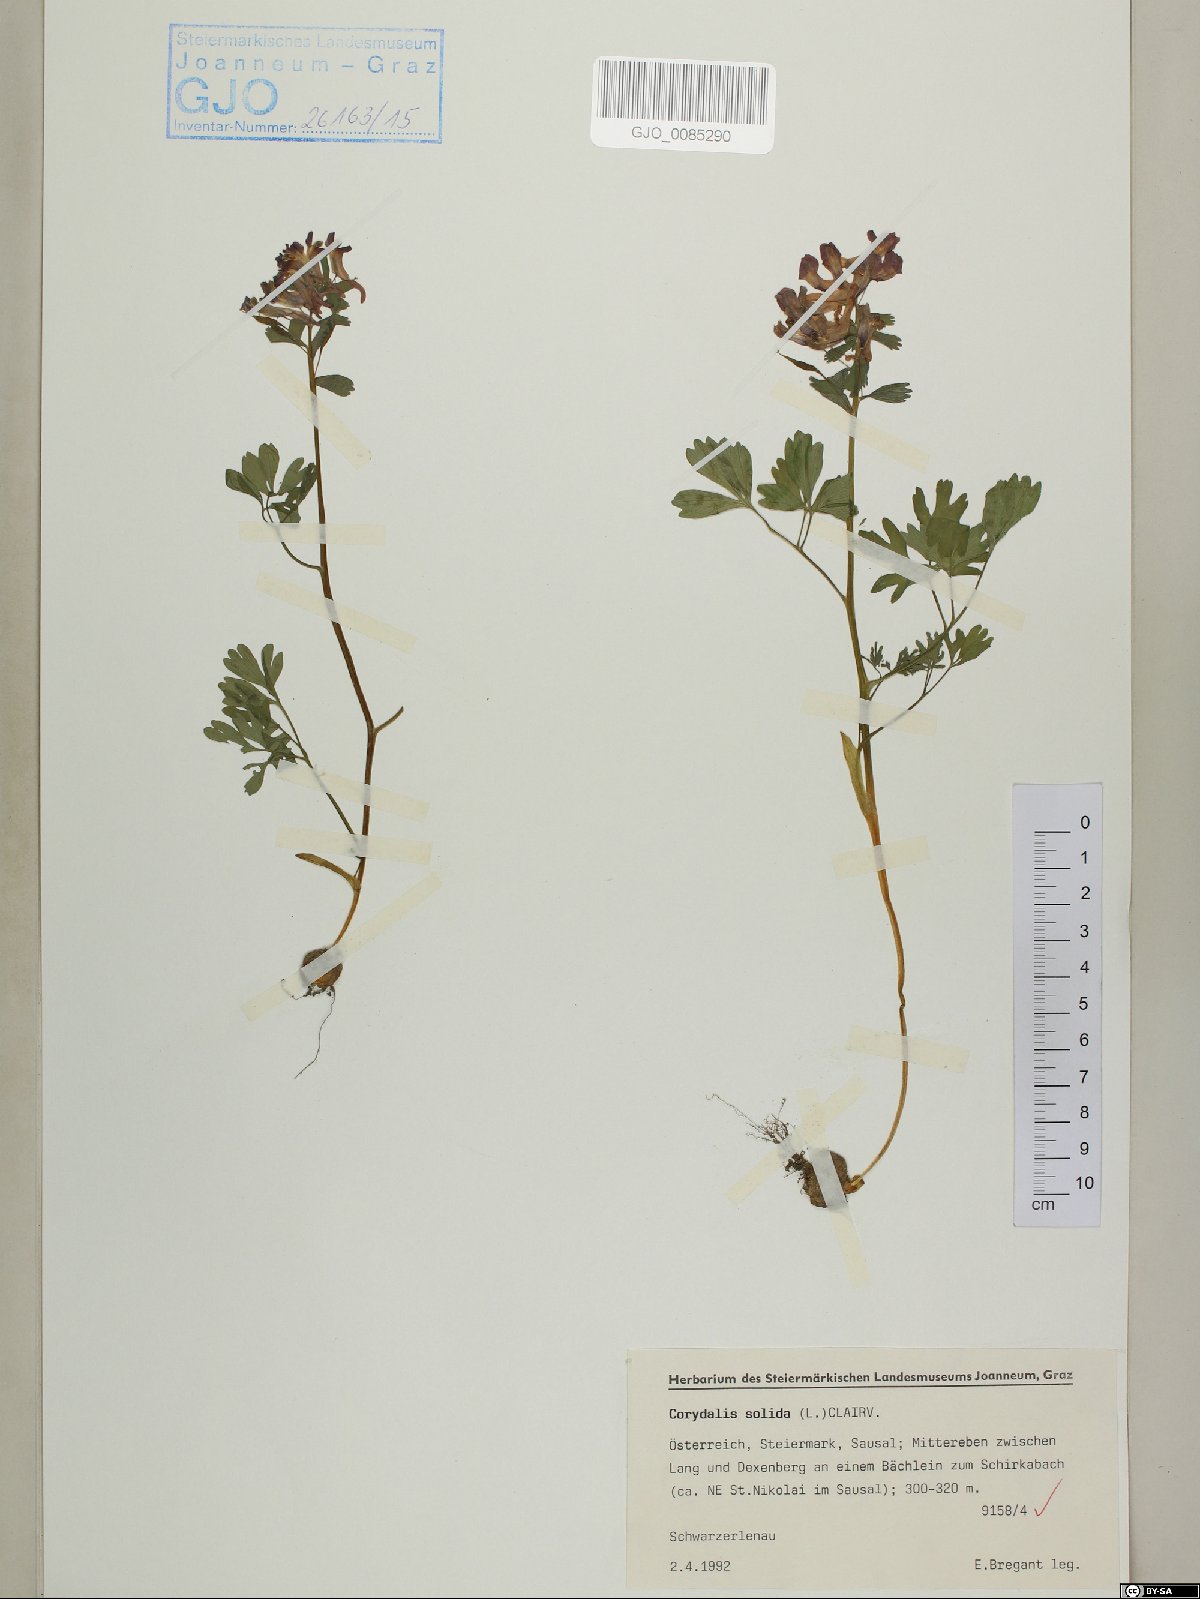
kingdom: Plantae
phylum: Tracheophyta
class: Magnoliopsida
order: Ranunculales
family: Papaveraceae
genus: Corydalis
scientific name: Corydalis solida
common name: Bird-in-a-bush
